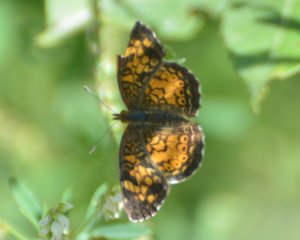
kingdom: Animalia
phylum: Arthropoda
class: Insecta
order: Lepidoptera
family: Nymphalidae
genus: Phyciodes
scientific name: Phyciodes tharos
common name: Northern Crescent
